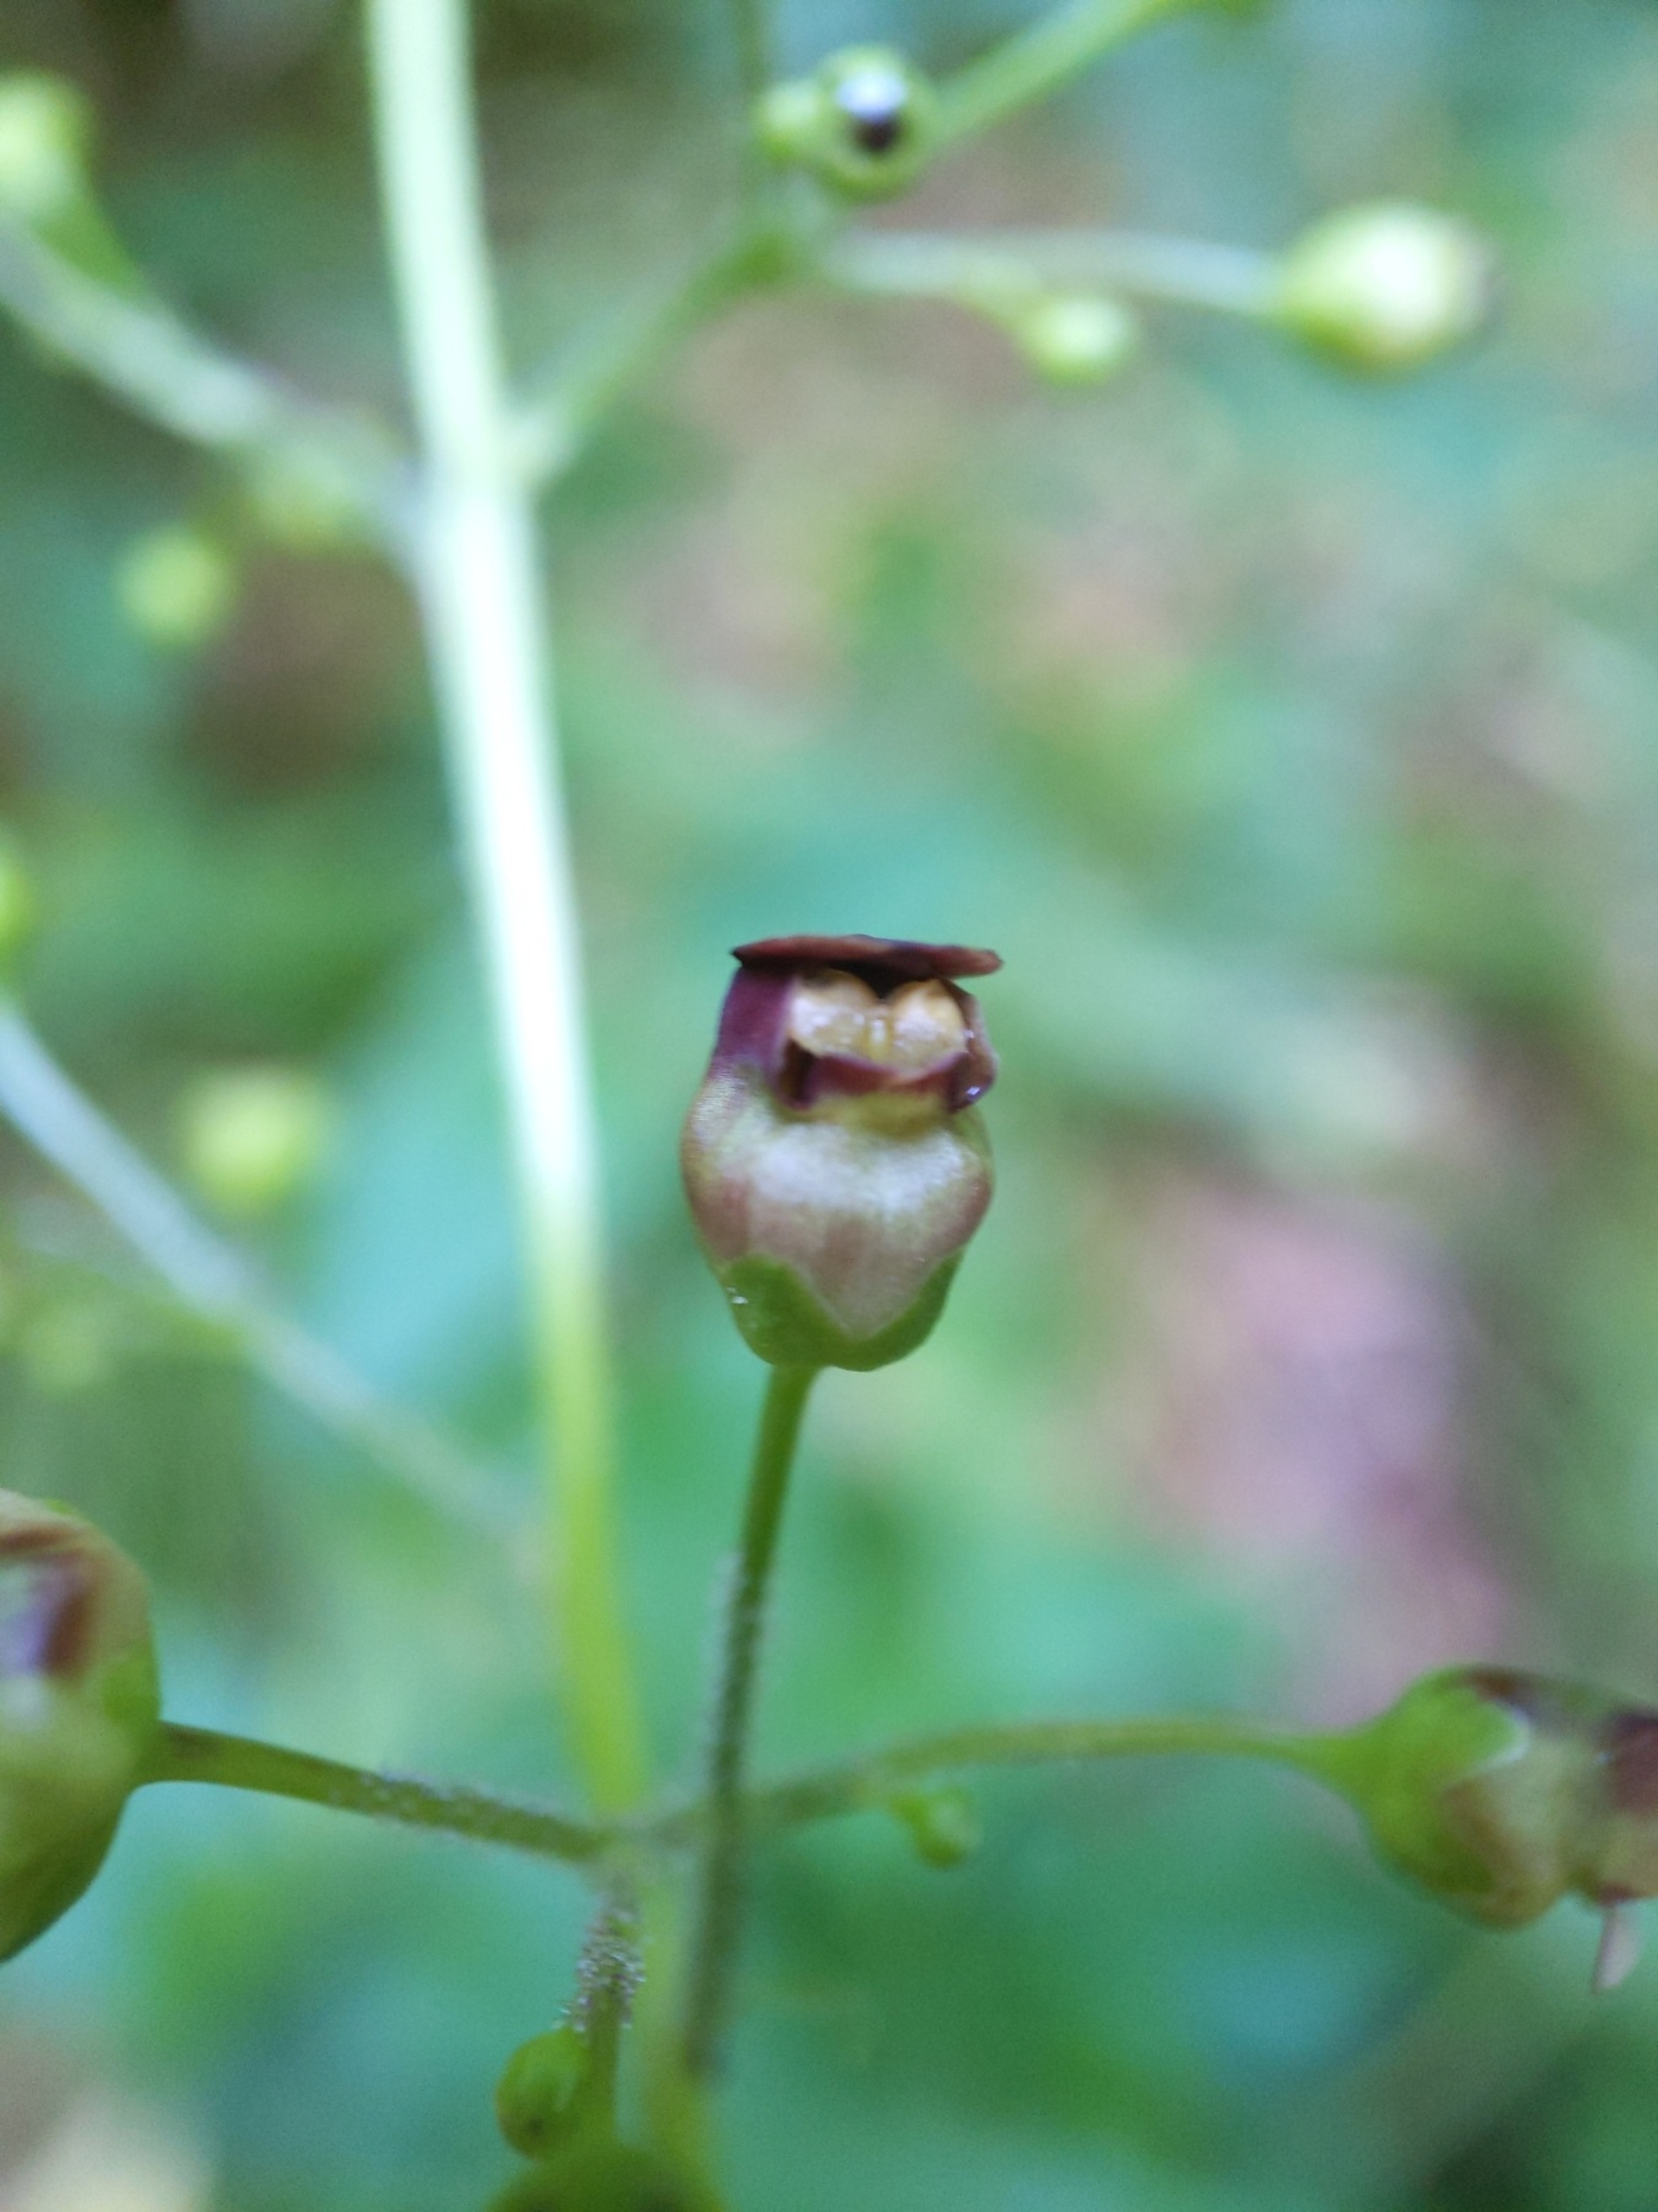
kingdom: Plantae
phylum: Tracheophyta
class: Magnoliopsida
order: Lamiales
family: Scrophulariaceae
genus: Scrophularia
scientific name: Scrophularia nodosa
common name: Knoldet brunrod
